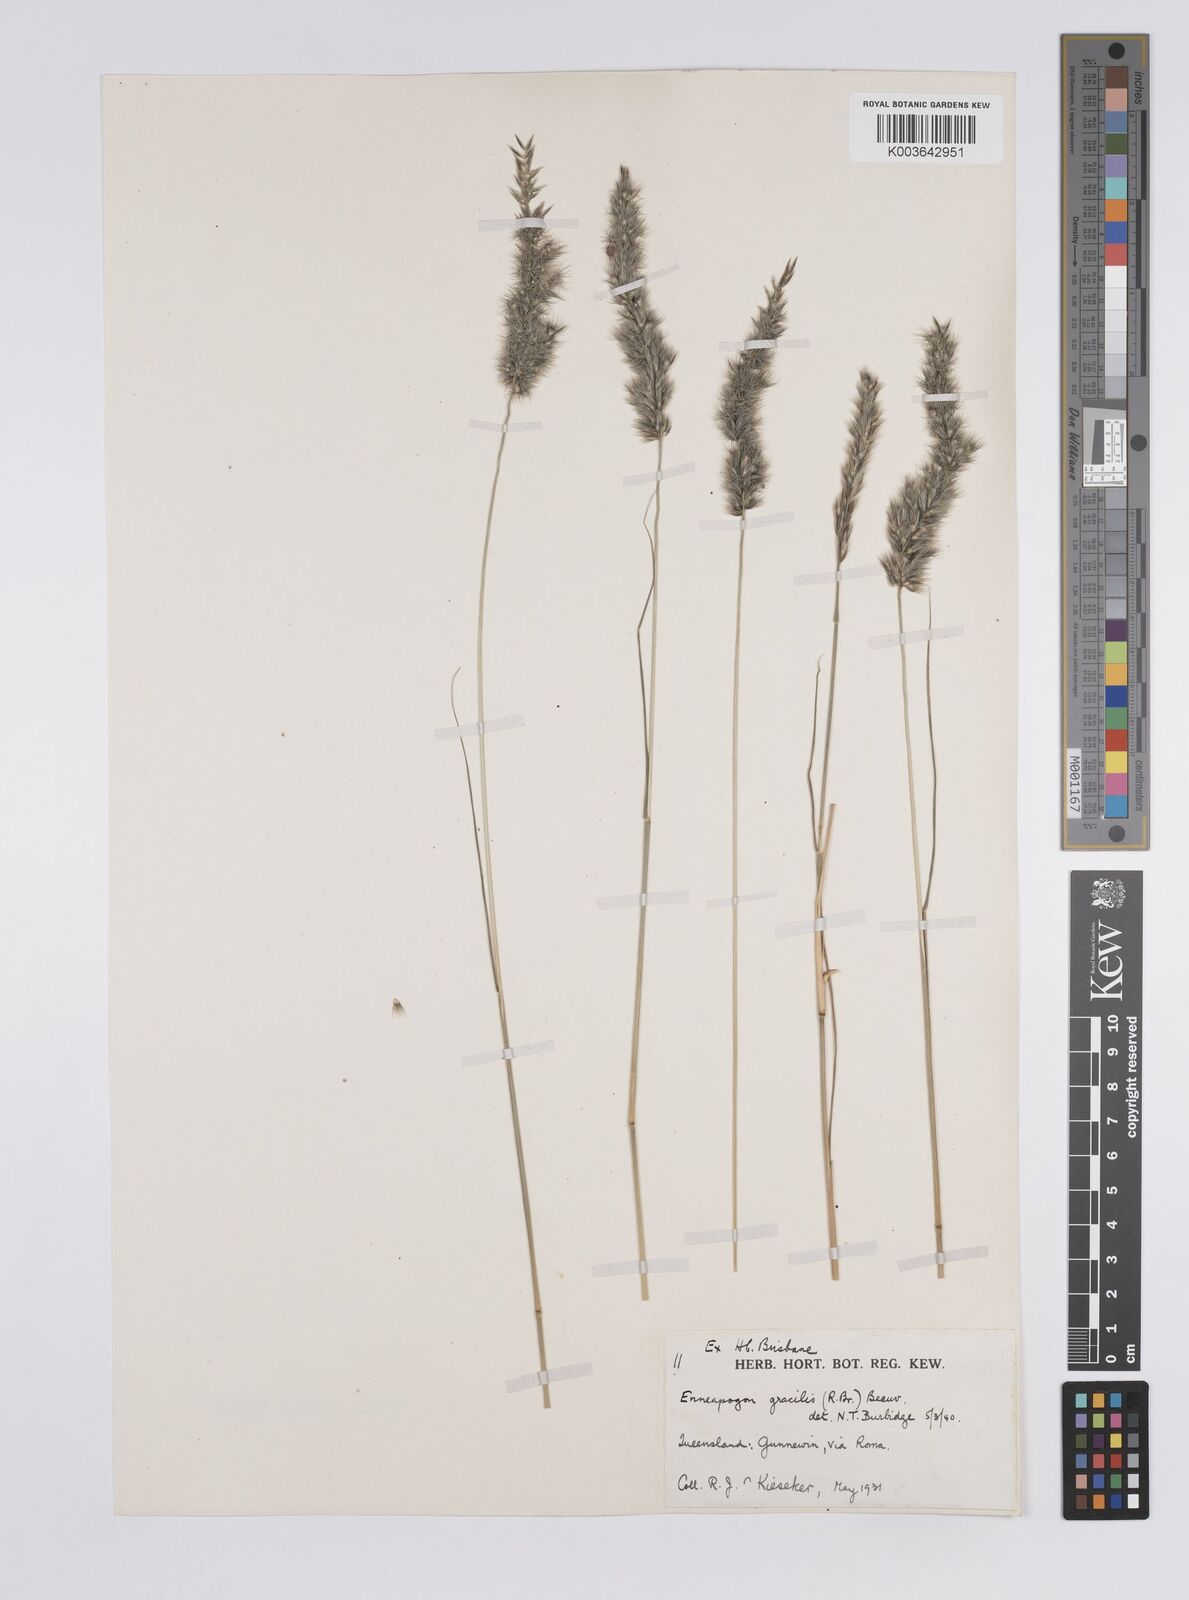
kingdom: Plantae
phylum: Tracheophyta
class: Liliopsida
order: Poales
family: Poaceae
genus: Enneapogon
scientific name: Enneapogon gracilis
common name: Slender bottle-washers
